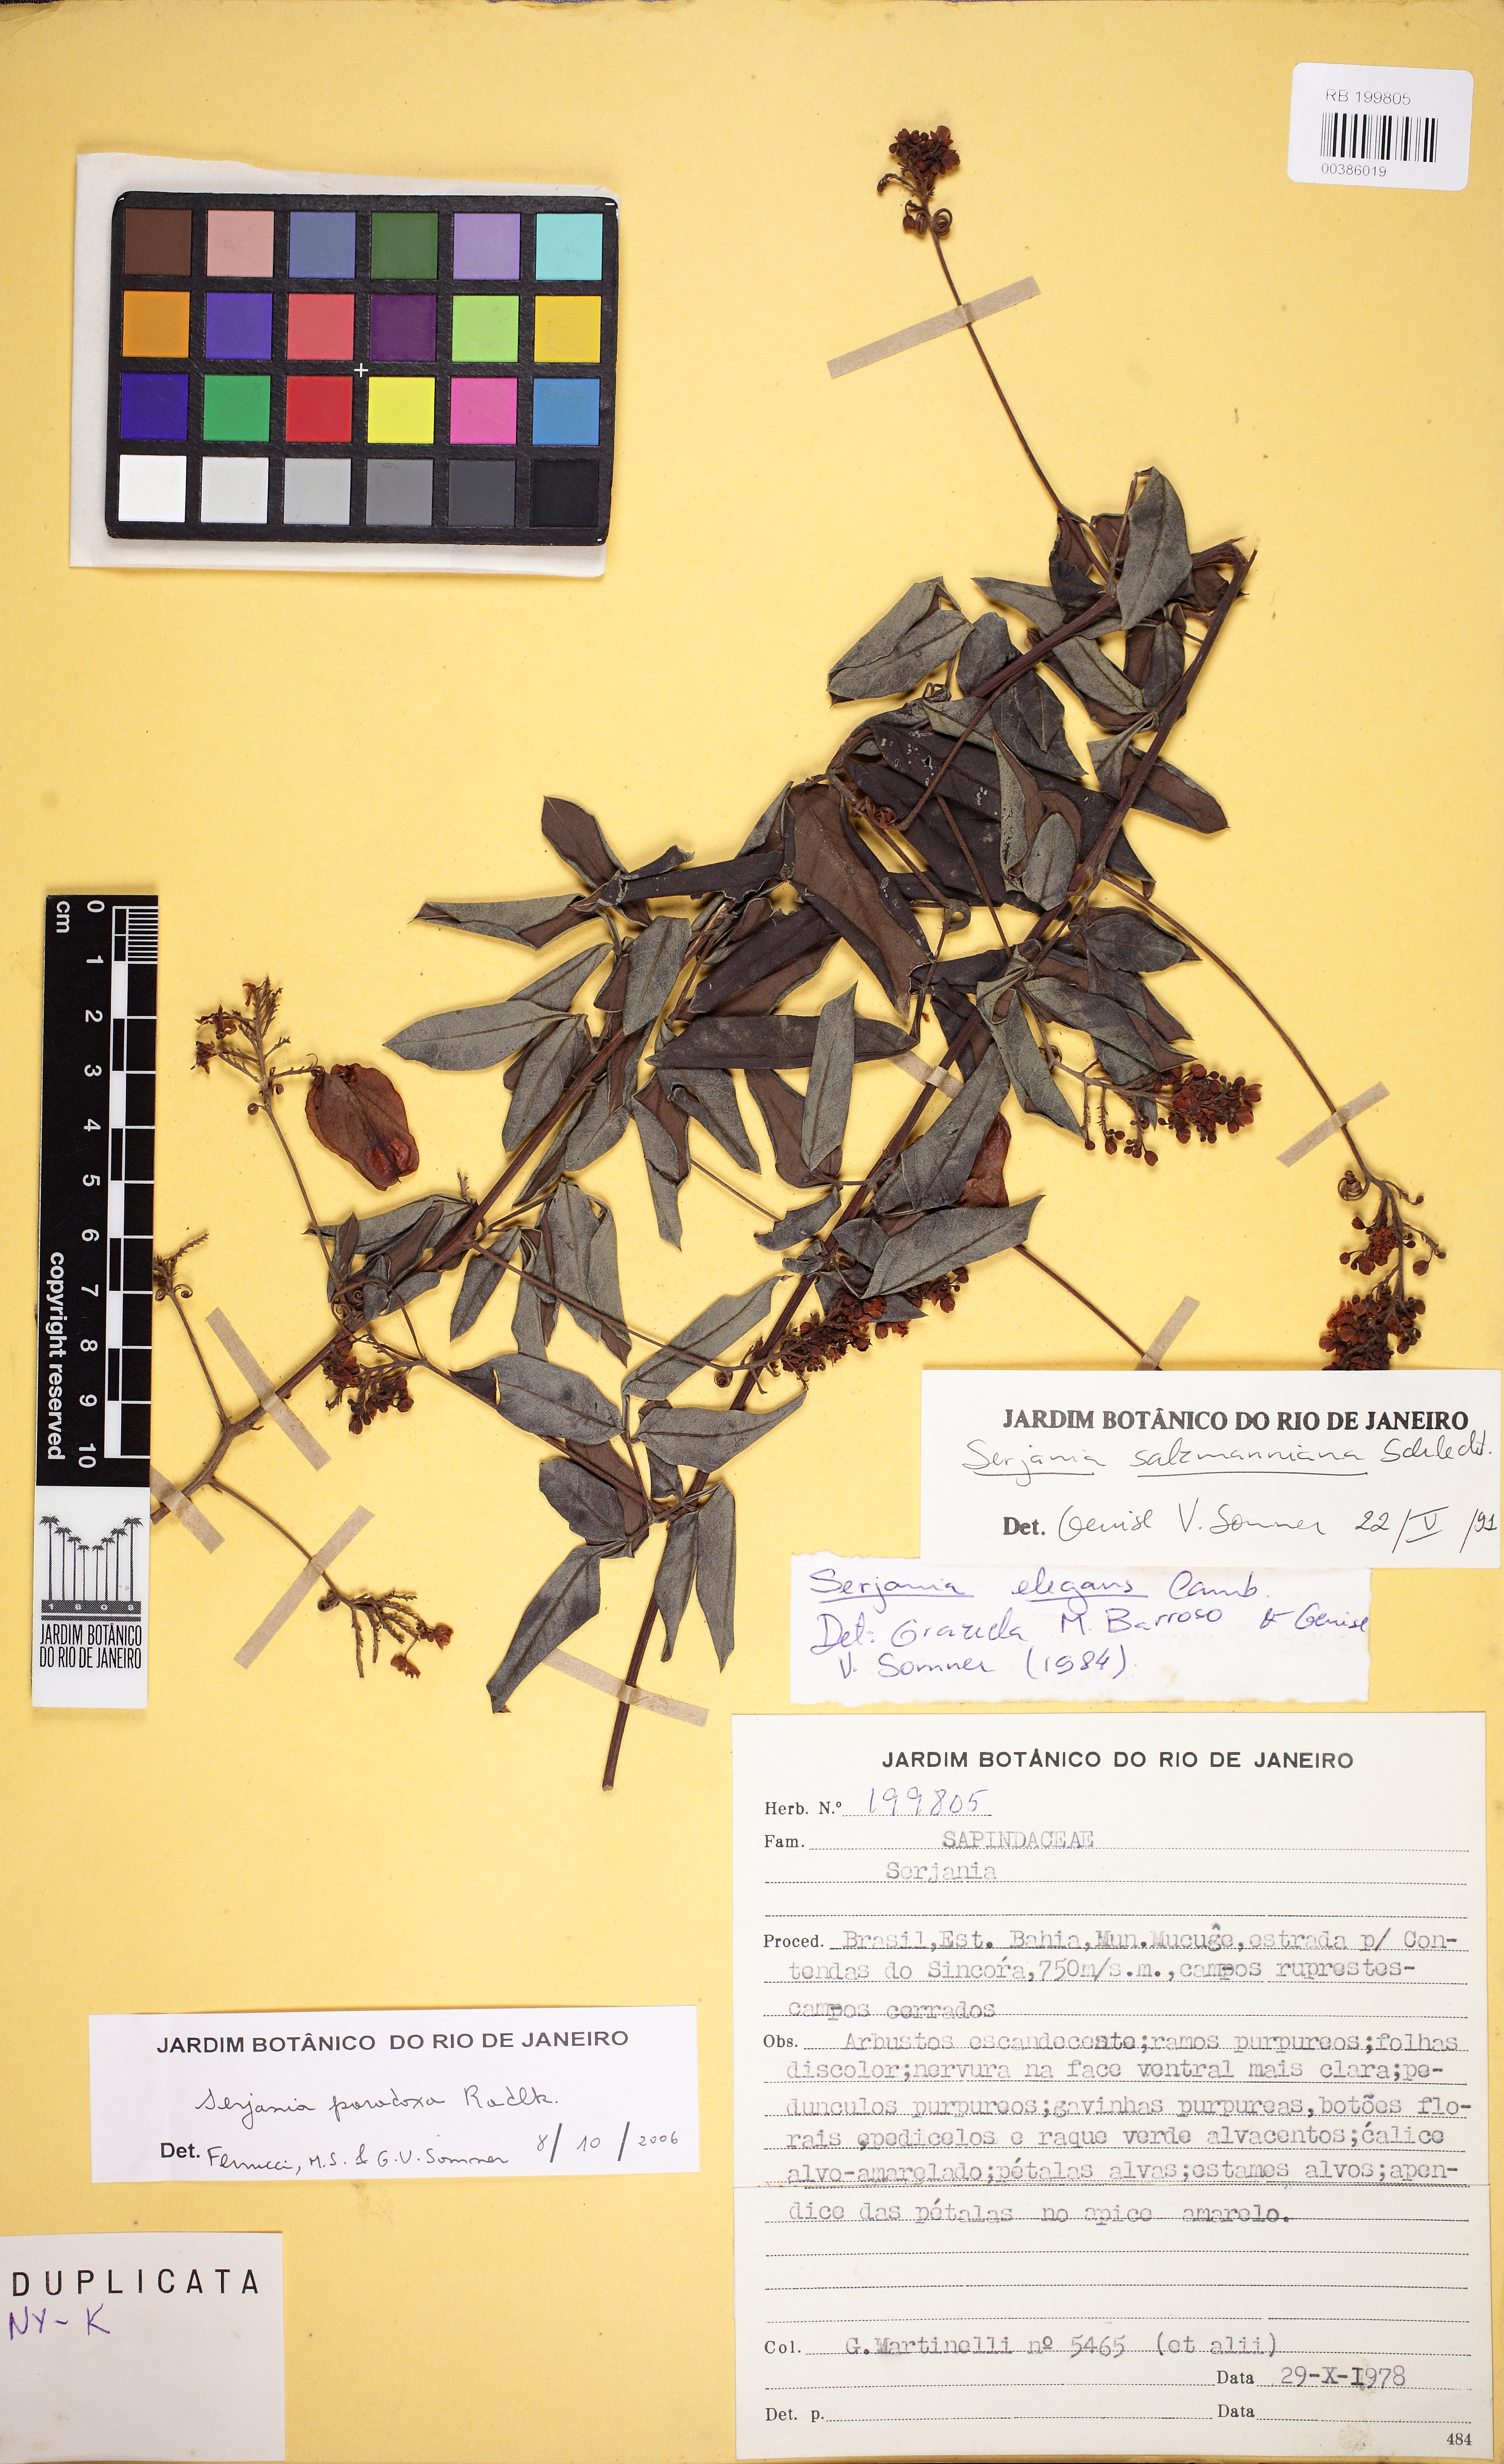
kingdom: Plantae
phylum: Tracheophyta
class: Magnoliopsida
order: Sapindales
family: Sapindaceae
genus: Serjania
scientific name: Serjania paradoxa
